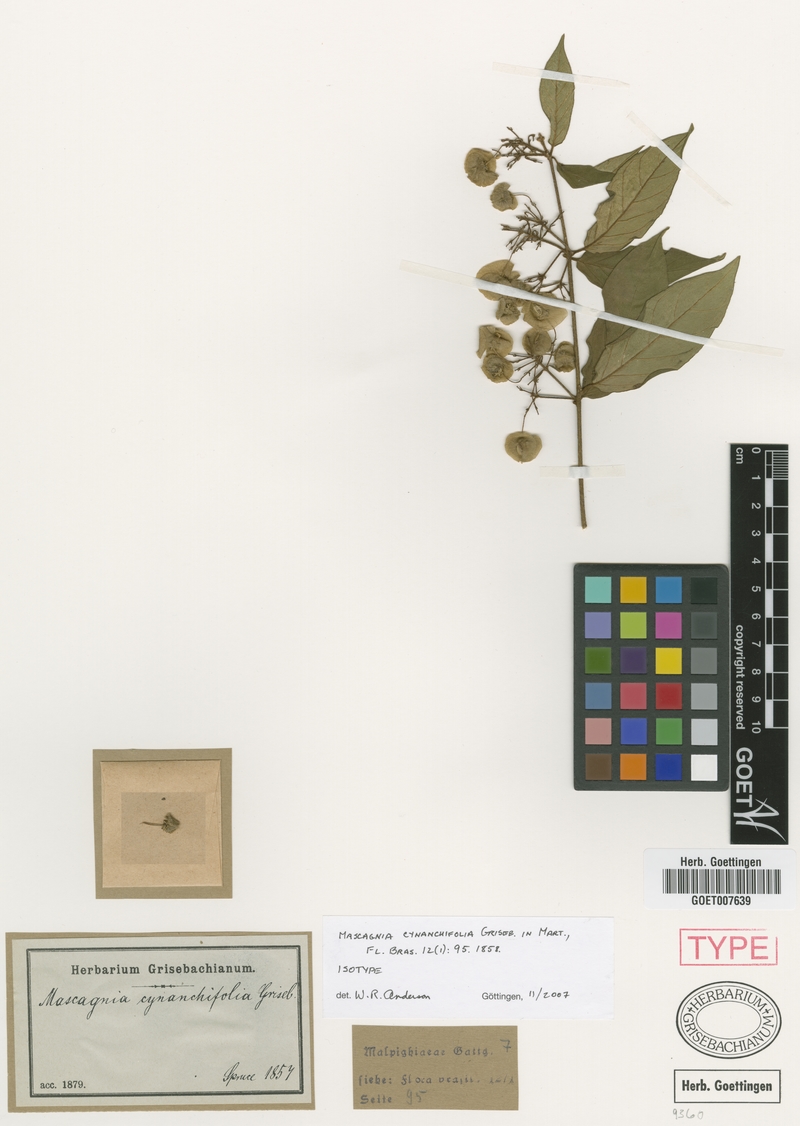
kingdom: Plantae
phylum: Tracheophyta
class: Magnoliopsida
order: Malpighiales
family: Malpighiaceae
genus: Mascagnia
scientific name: Mascagnia cynanchifolia
